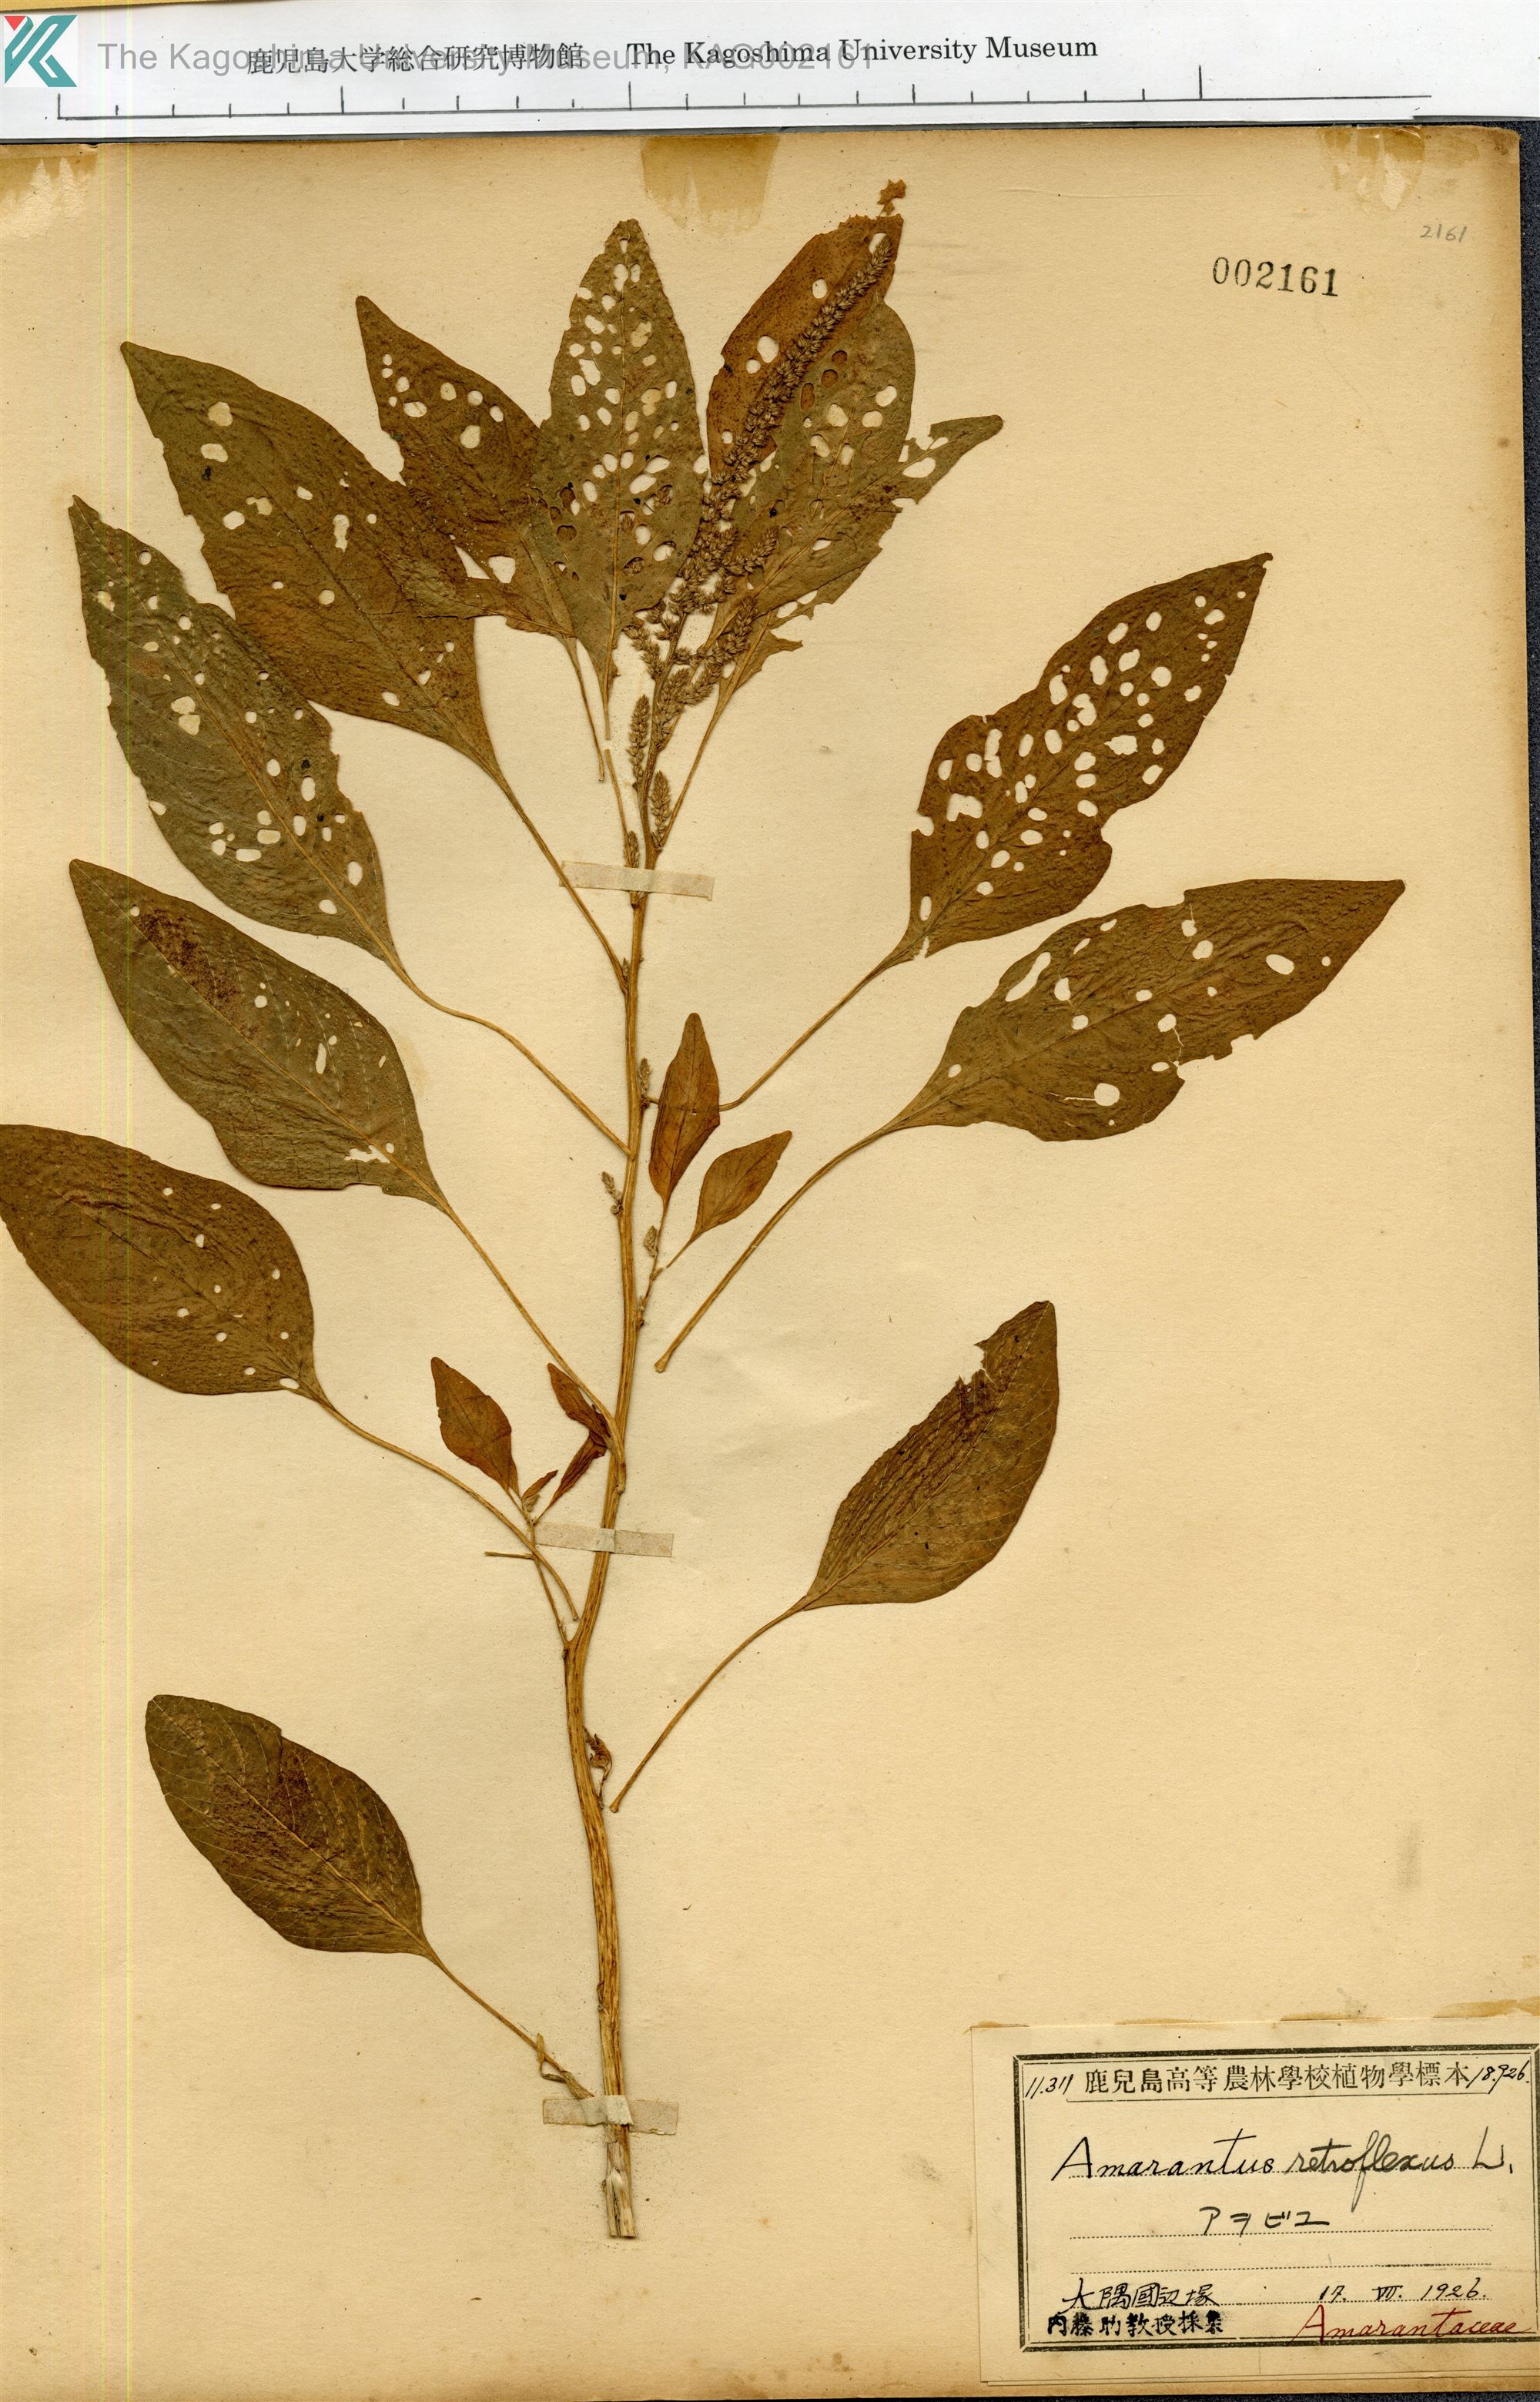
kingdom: Plantae
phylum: Tracheophyta
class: Magnoliopsida
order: Caryophyllales
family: Amaranthaceae
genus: Amaranthus
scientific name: Amaranthus retroflexus
